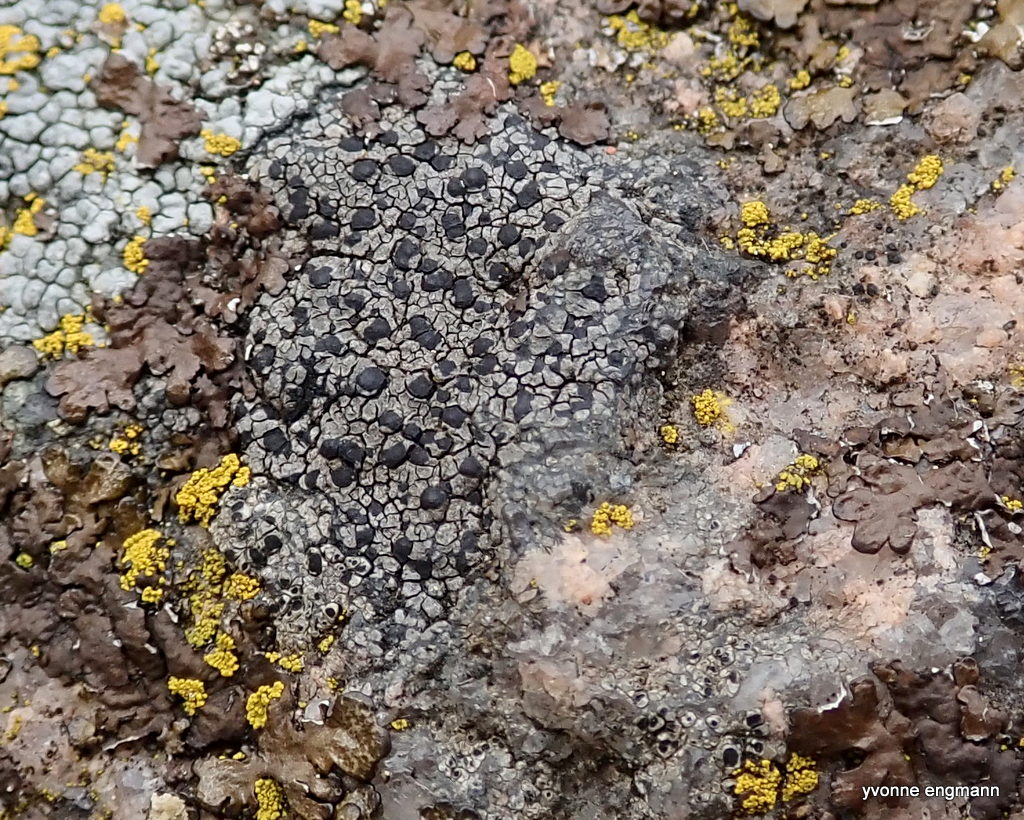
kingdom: Fungi
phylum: Ascomycota
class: Lecanoromycetes
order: Lecideales
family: Lecideaceae
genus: Lecidea
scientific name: Lecidea fuscoatra
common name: rudret skivelav
